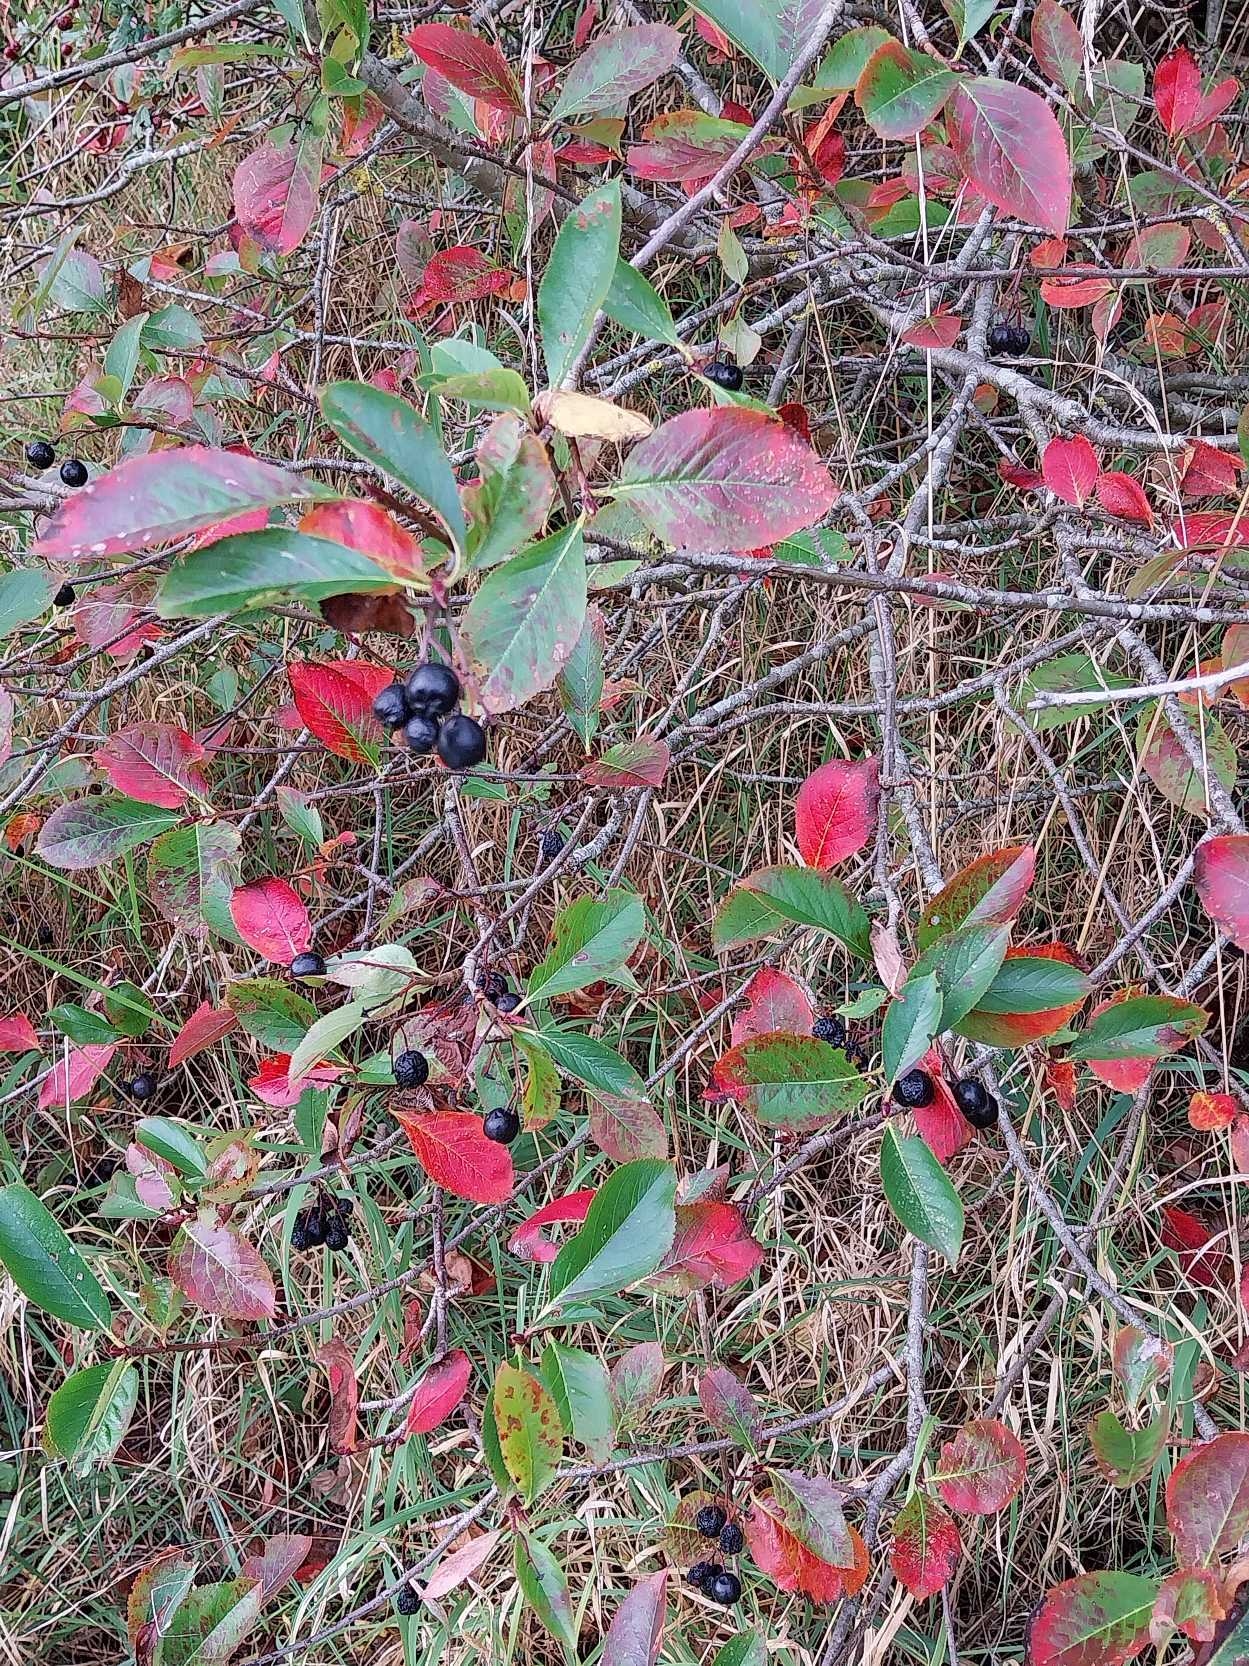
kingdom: Plantae
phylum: Tracheophyta
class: Magnoliopsida
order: Rosales
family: Rosaceae
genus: Aronia
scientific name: Aronia melanocarpa
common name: Sortfrugtet surbær
